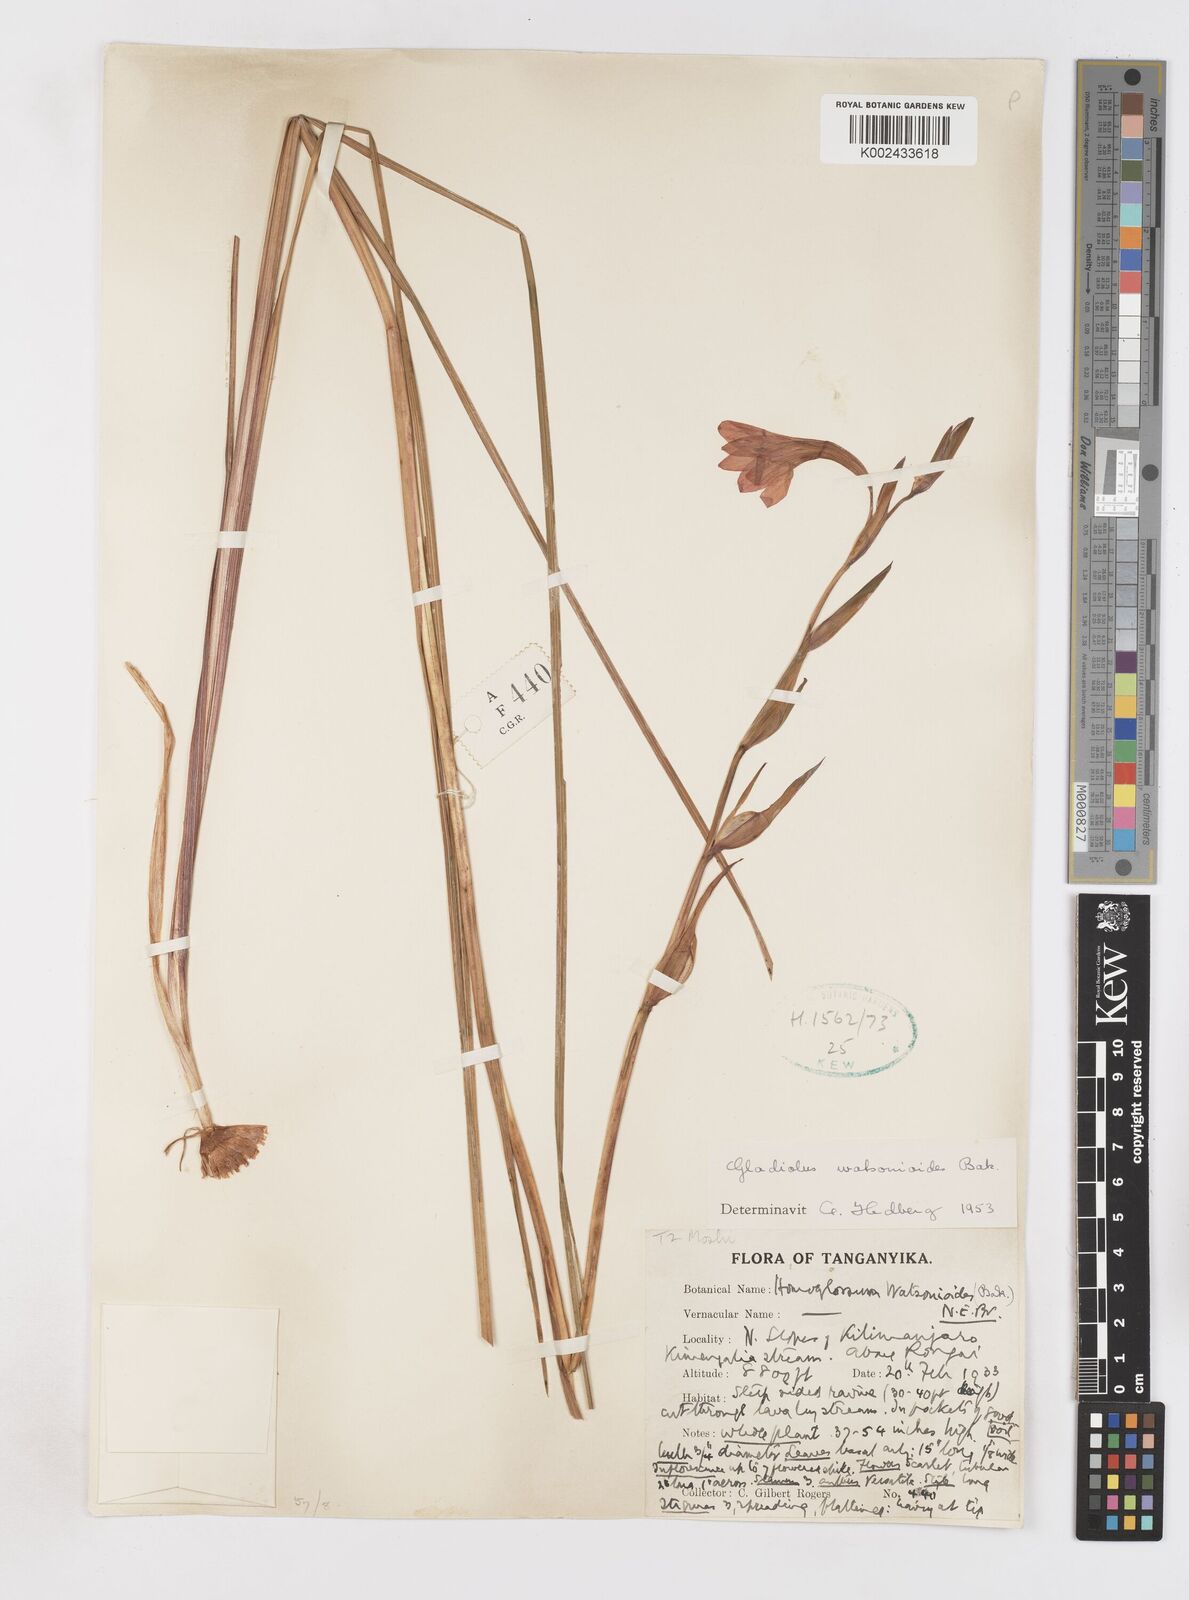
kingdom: Plantae
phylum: Tracheophyta
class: Liliopsida
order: Asparagales
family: Iridaceae
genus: Gladiolus
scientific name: Gladiolus watsonioides
